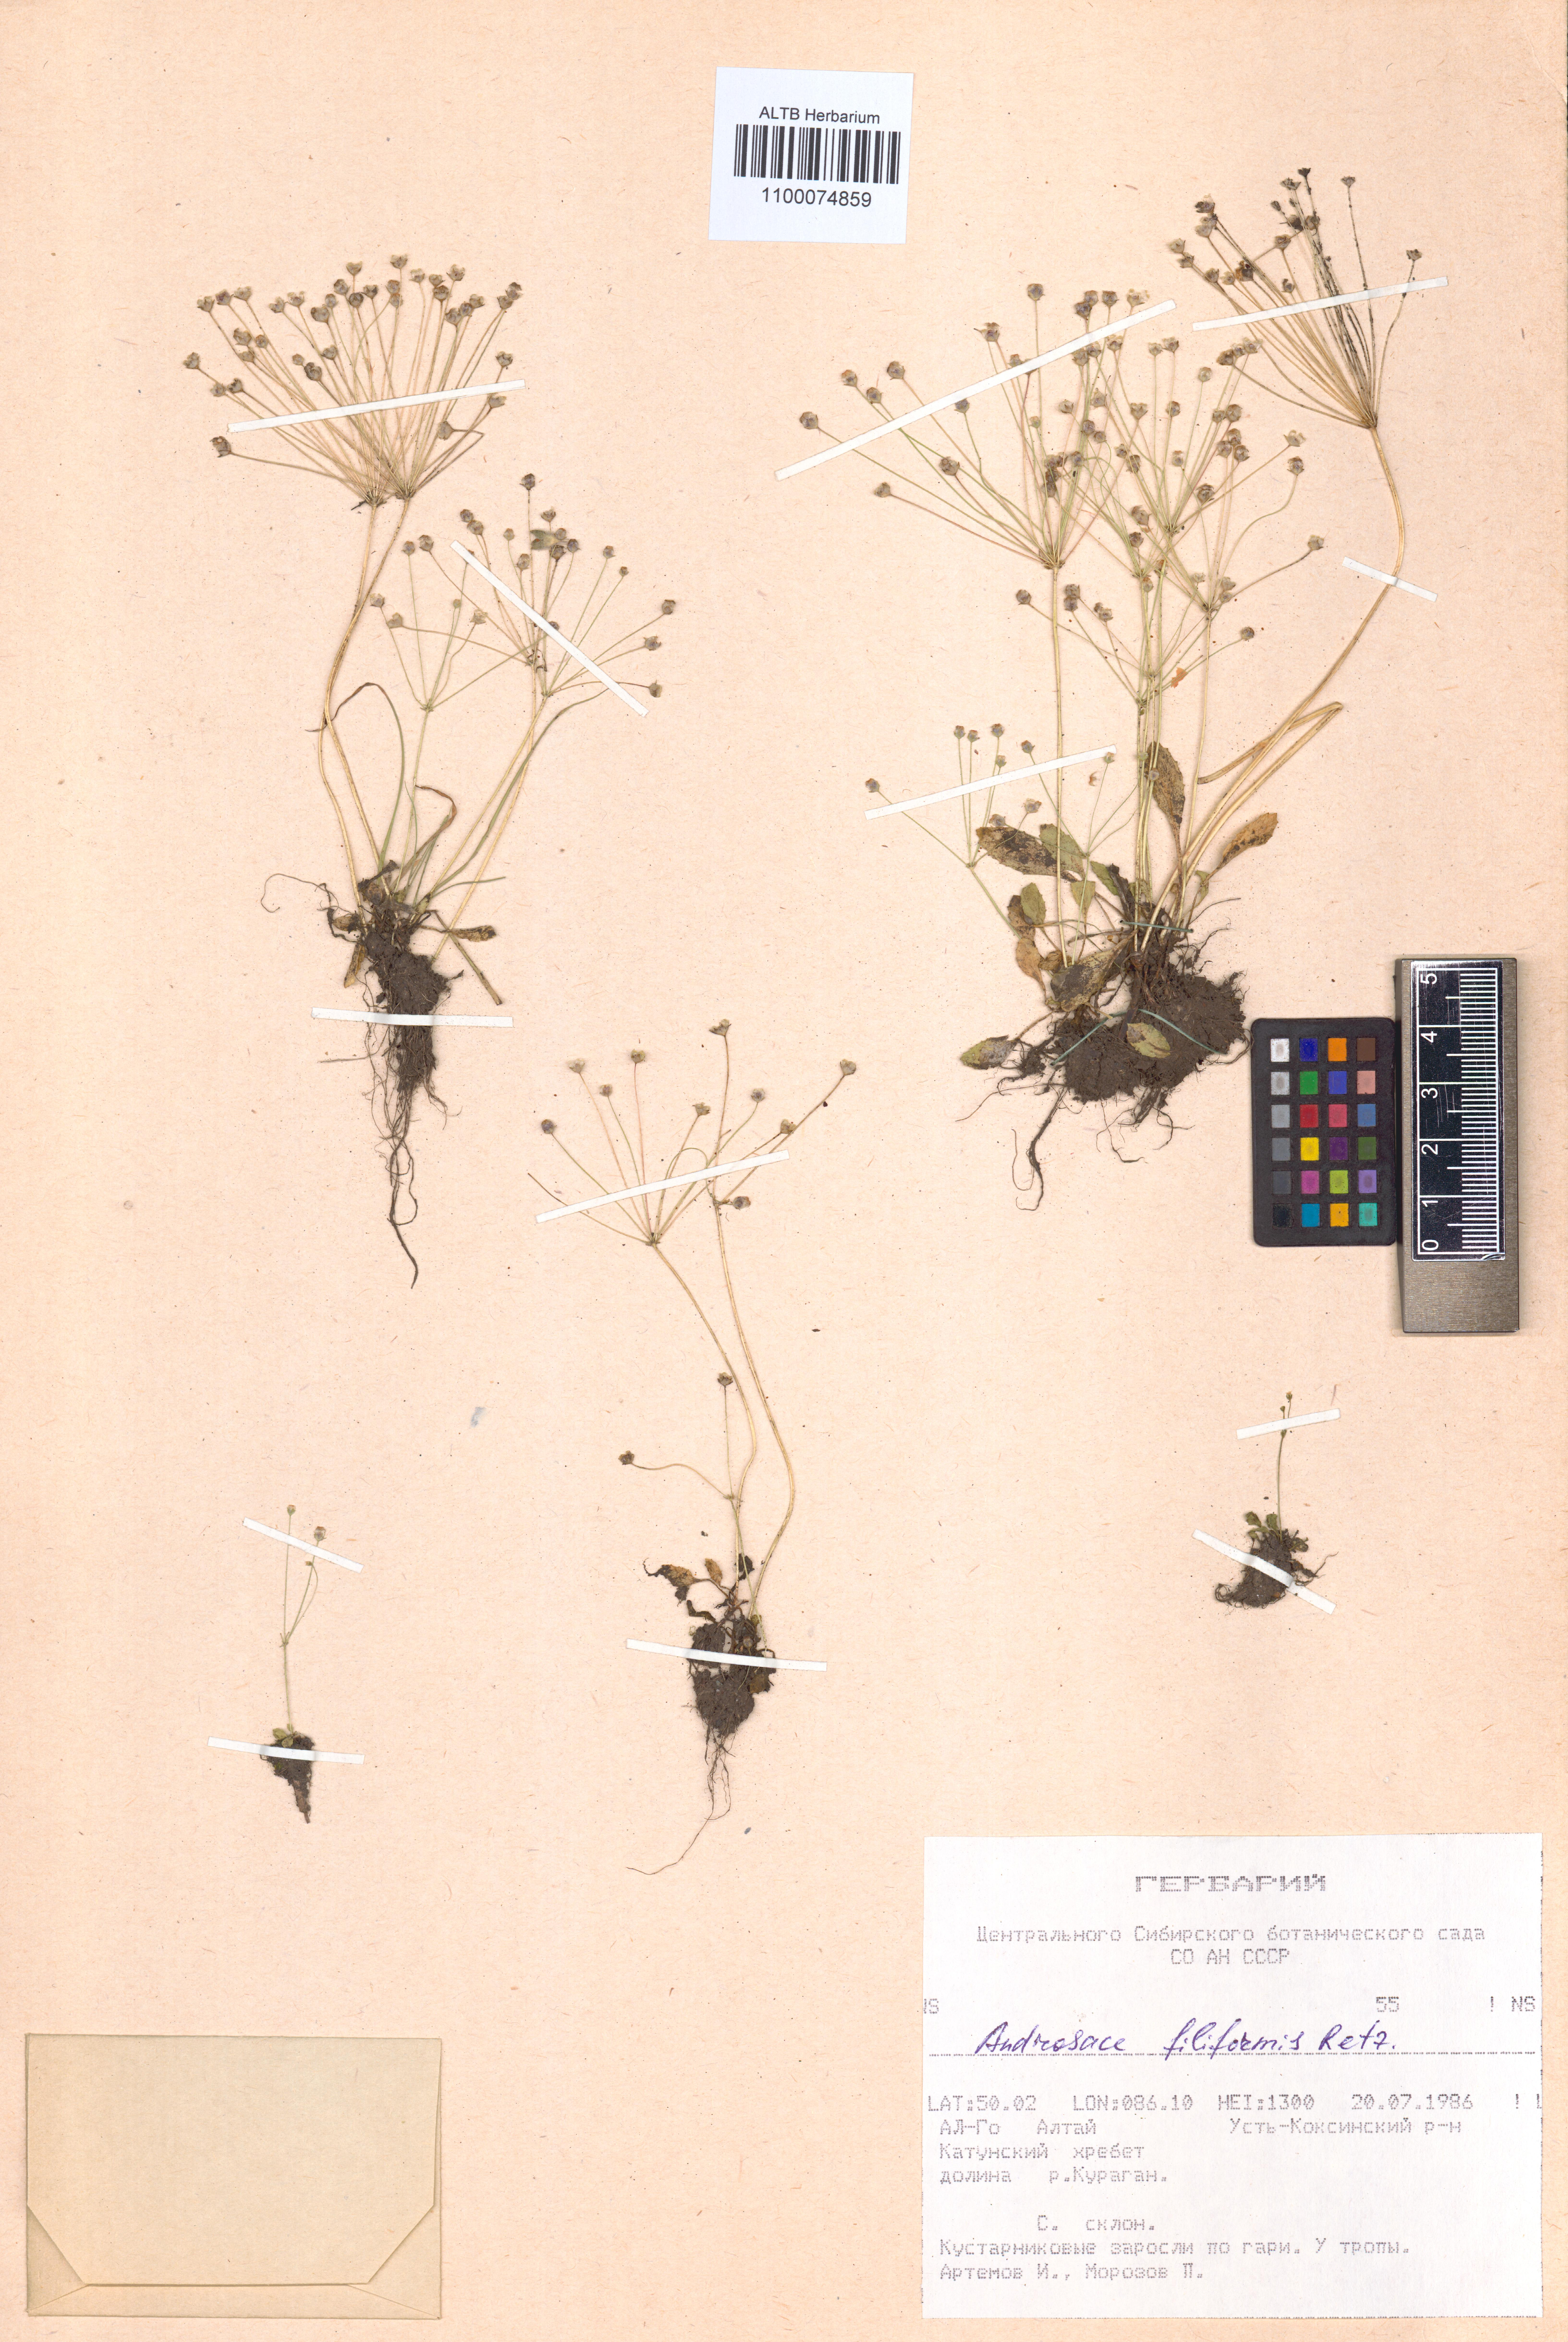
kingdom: Plantae
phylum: Tracheophyta
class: Magnoliopsida
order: Ericales
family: Primulaceae
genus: Androsace
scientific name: Androsace filiformis
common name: Filiform rock jasmine
